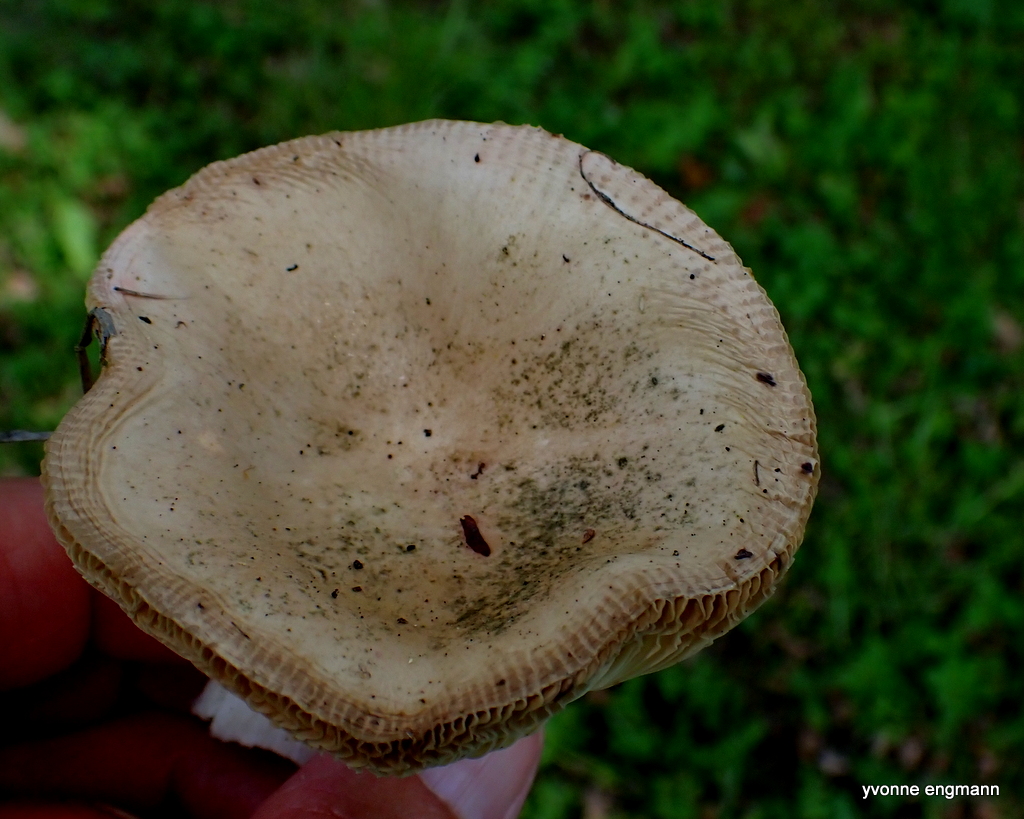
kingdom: Fungi
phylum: Basidiomycota
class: Agaricomycetes
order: Russulales
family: Russulaceae
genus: Russula
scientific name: Russula
